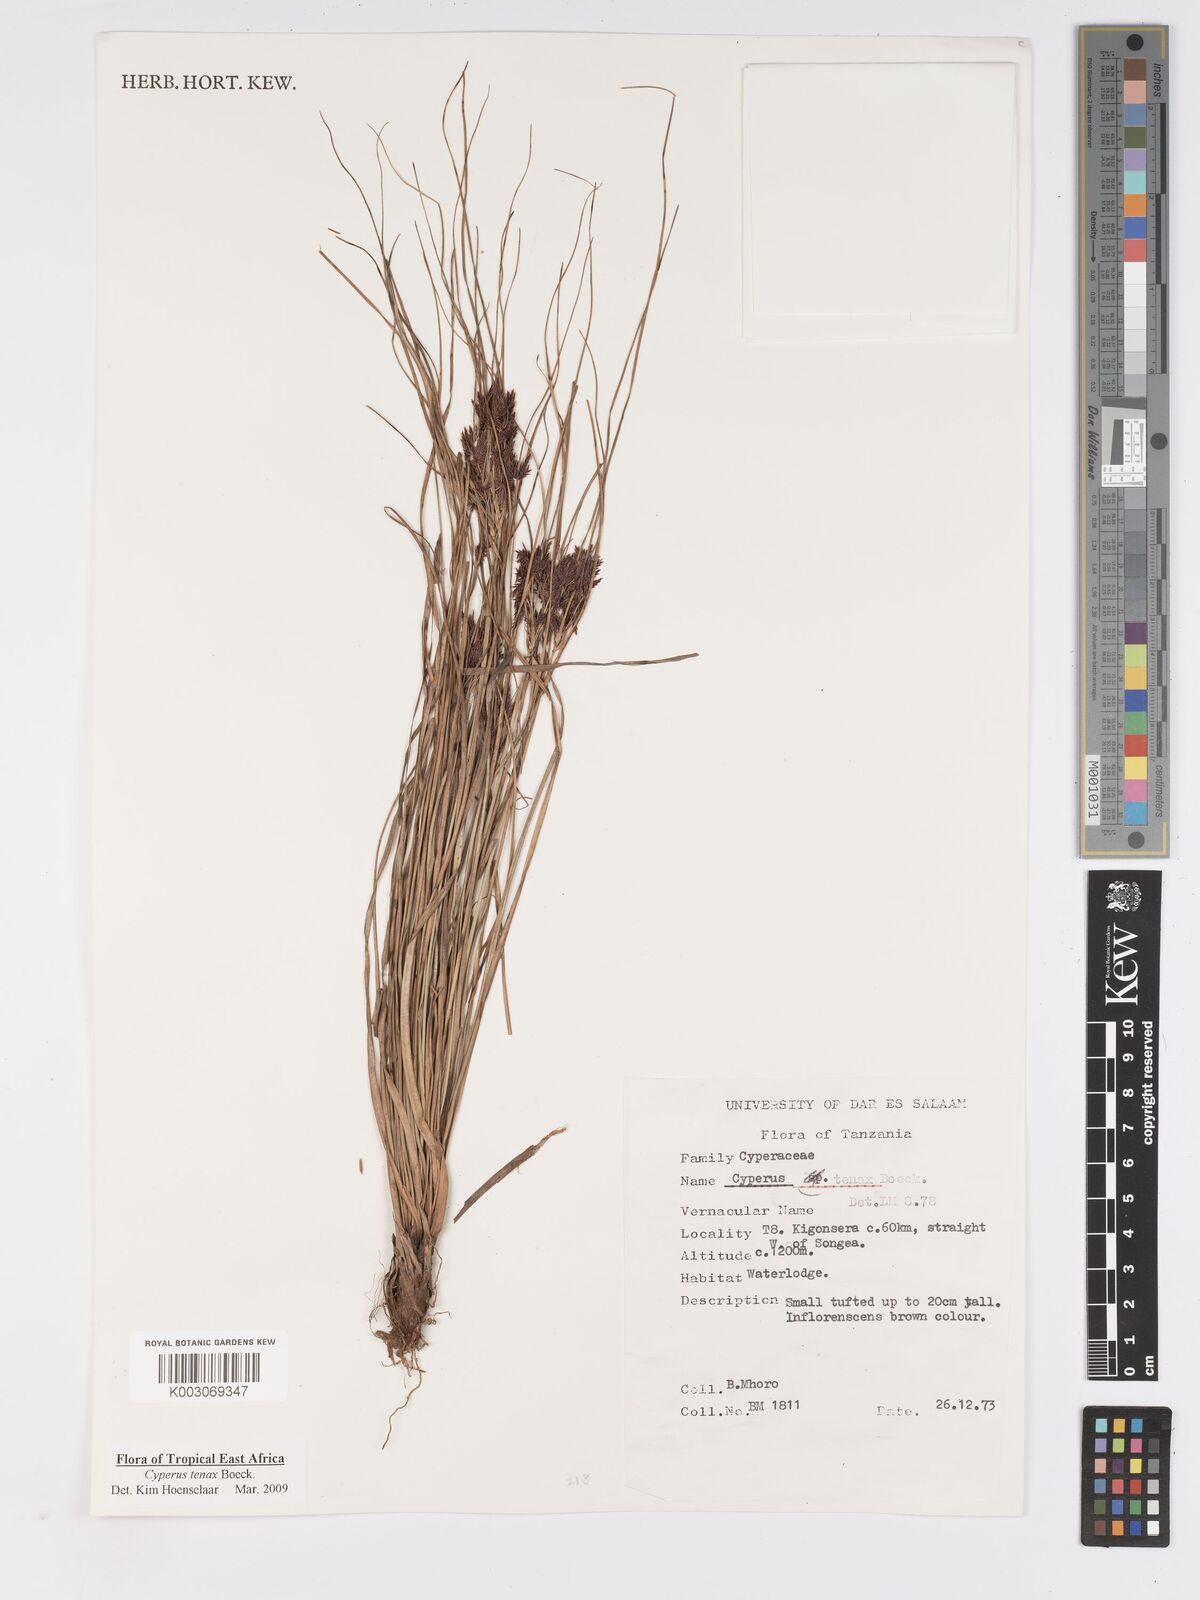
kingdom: Plantae
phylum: Tracheophyta
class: Liliopsida
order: Poales
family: Cyperaceae
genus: Cyperus
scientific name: Cyperus tenax
